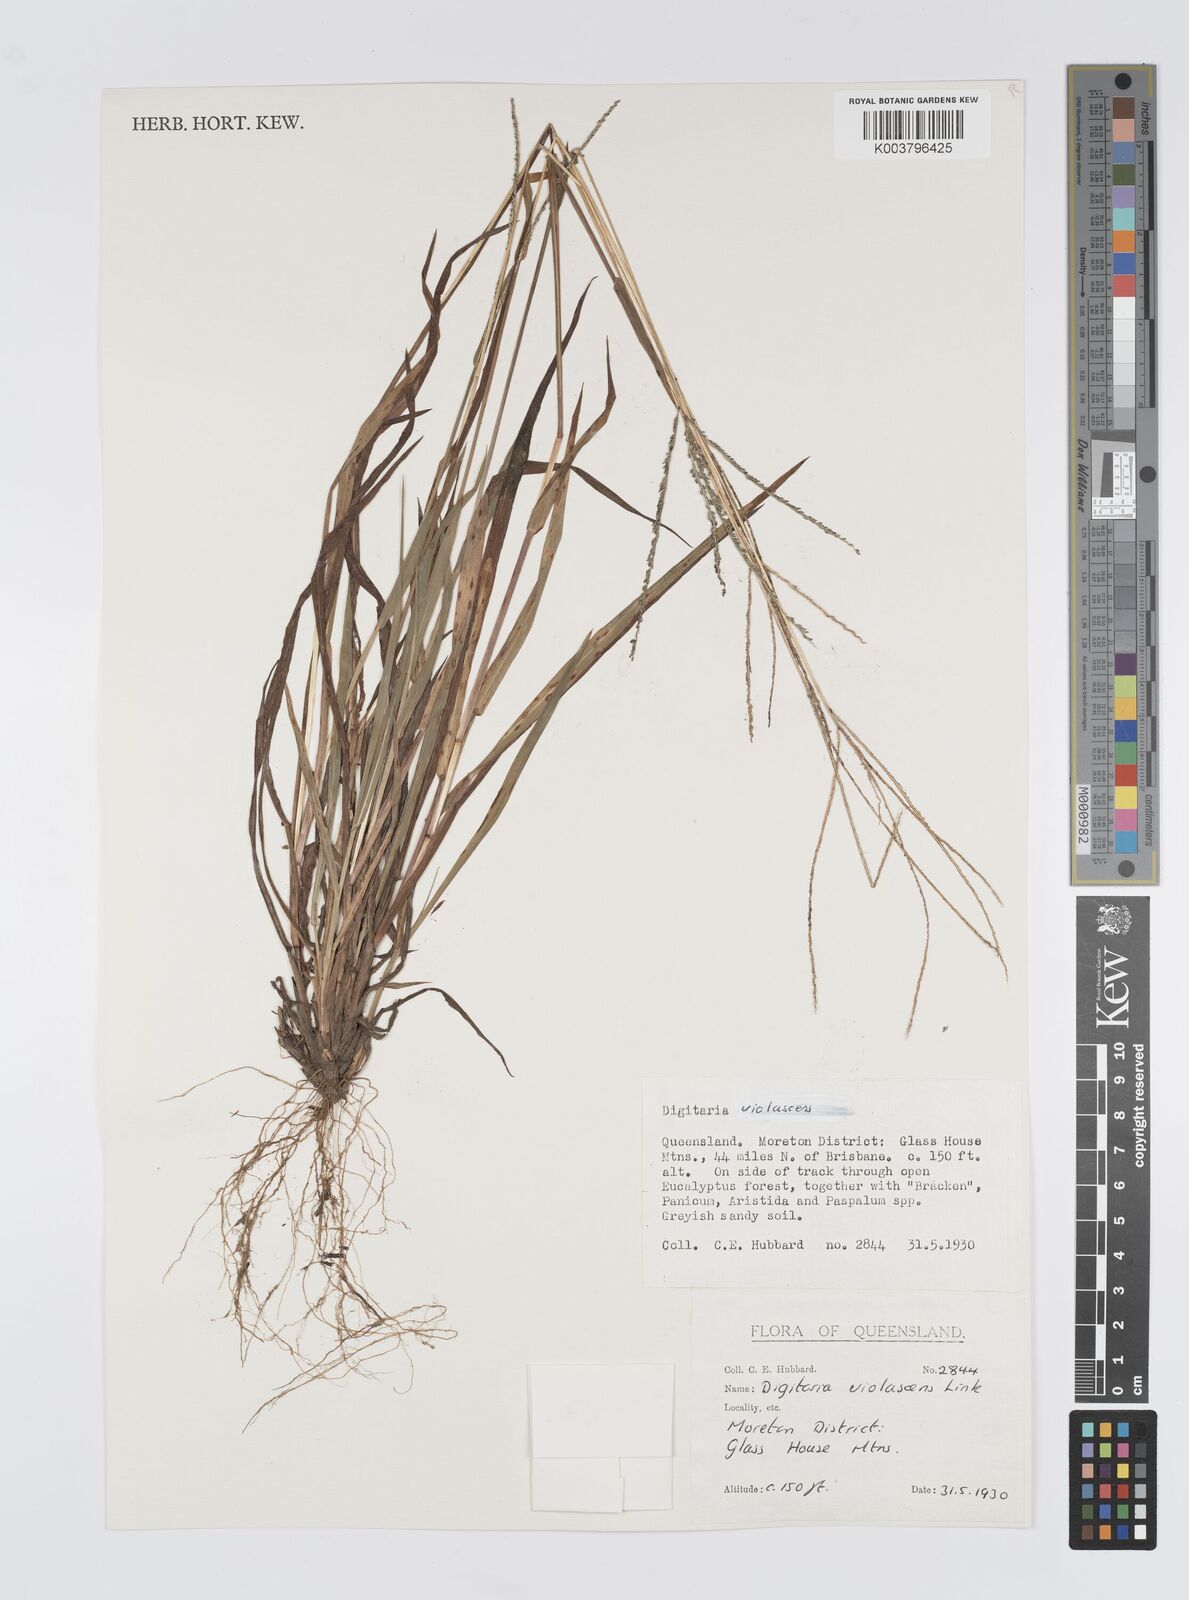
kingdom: Plantae
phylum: Tracheophyta
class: Liliopsida
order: Poales
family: Poaceae
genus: Digitaria
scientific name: Digitaria violascens
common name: Violet crabgrass
